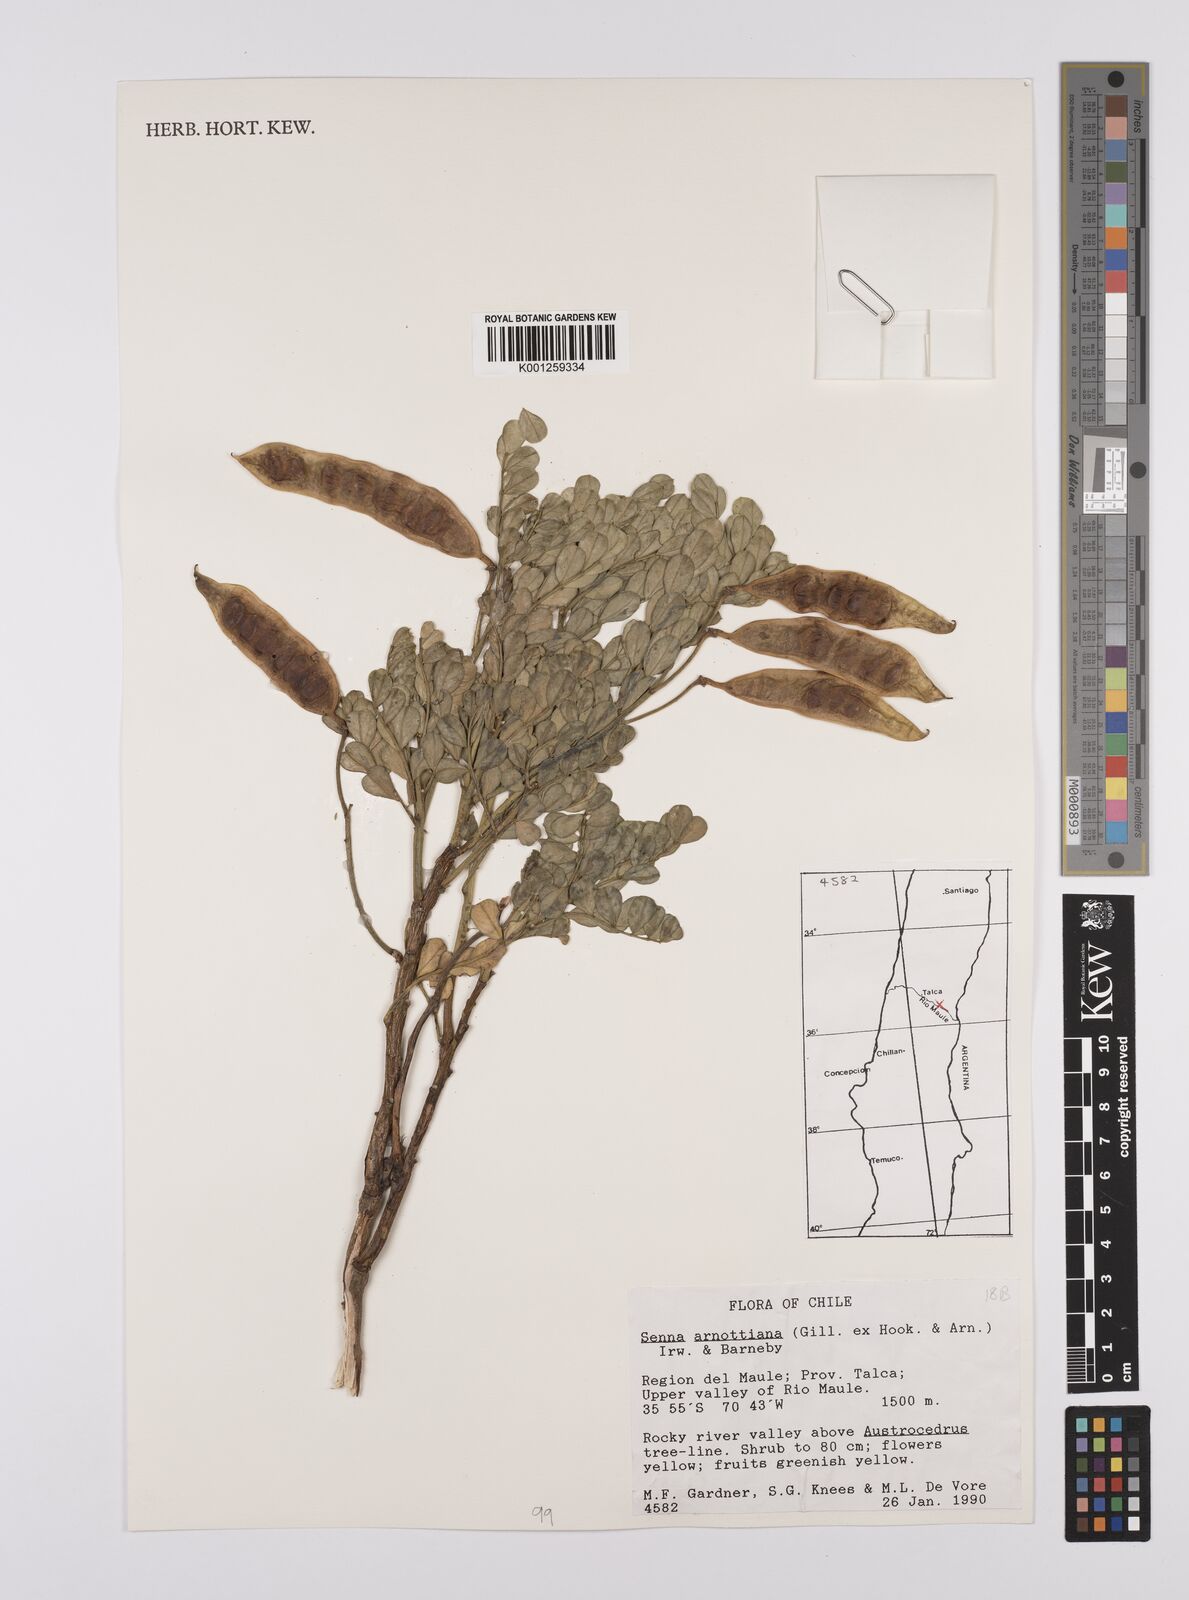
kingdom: Plantae
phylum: Tracheophyta
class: Magnoliopsida
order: Fabales
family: Fabaceae
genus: Senna
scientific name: Senna arnottiana
